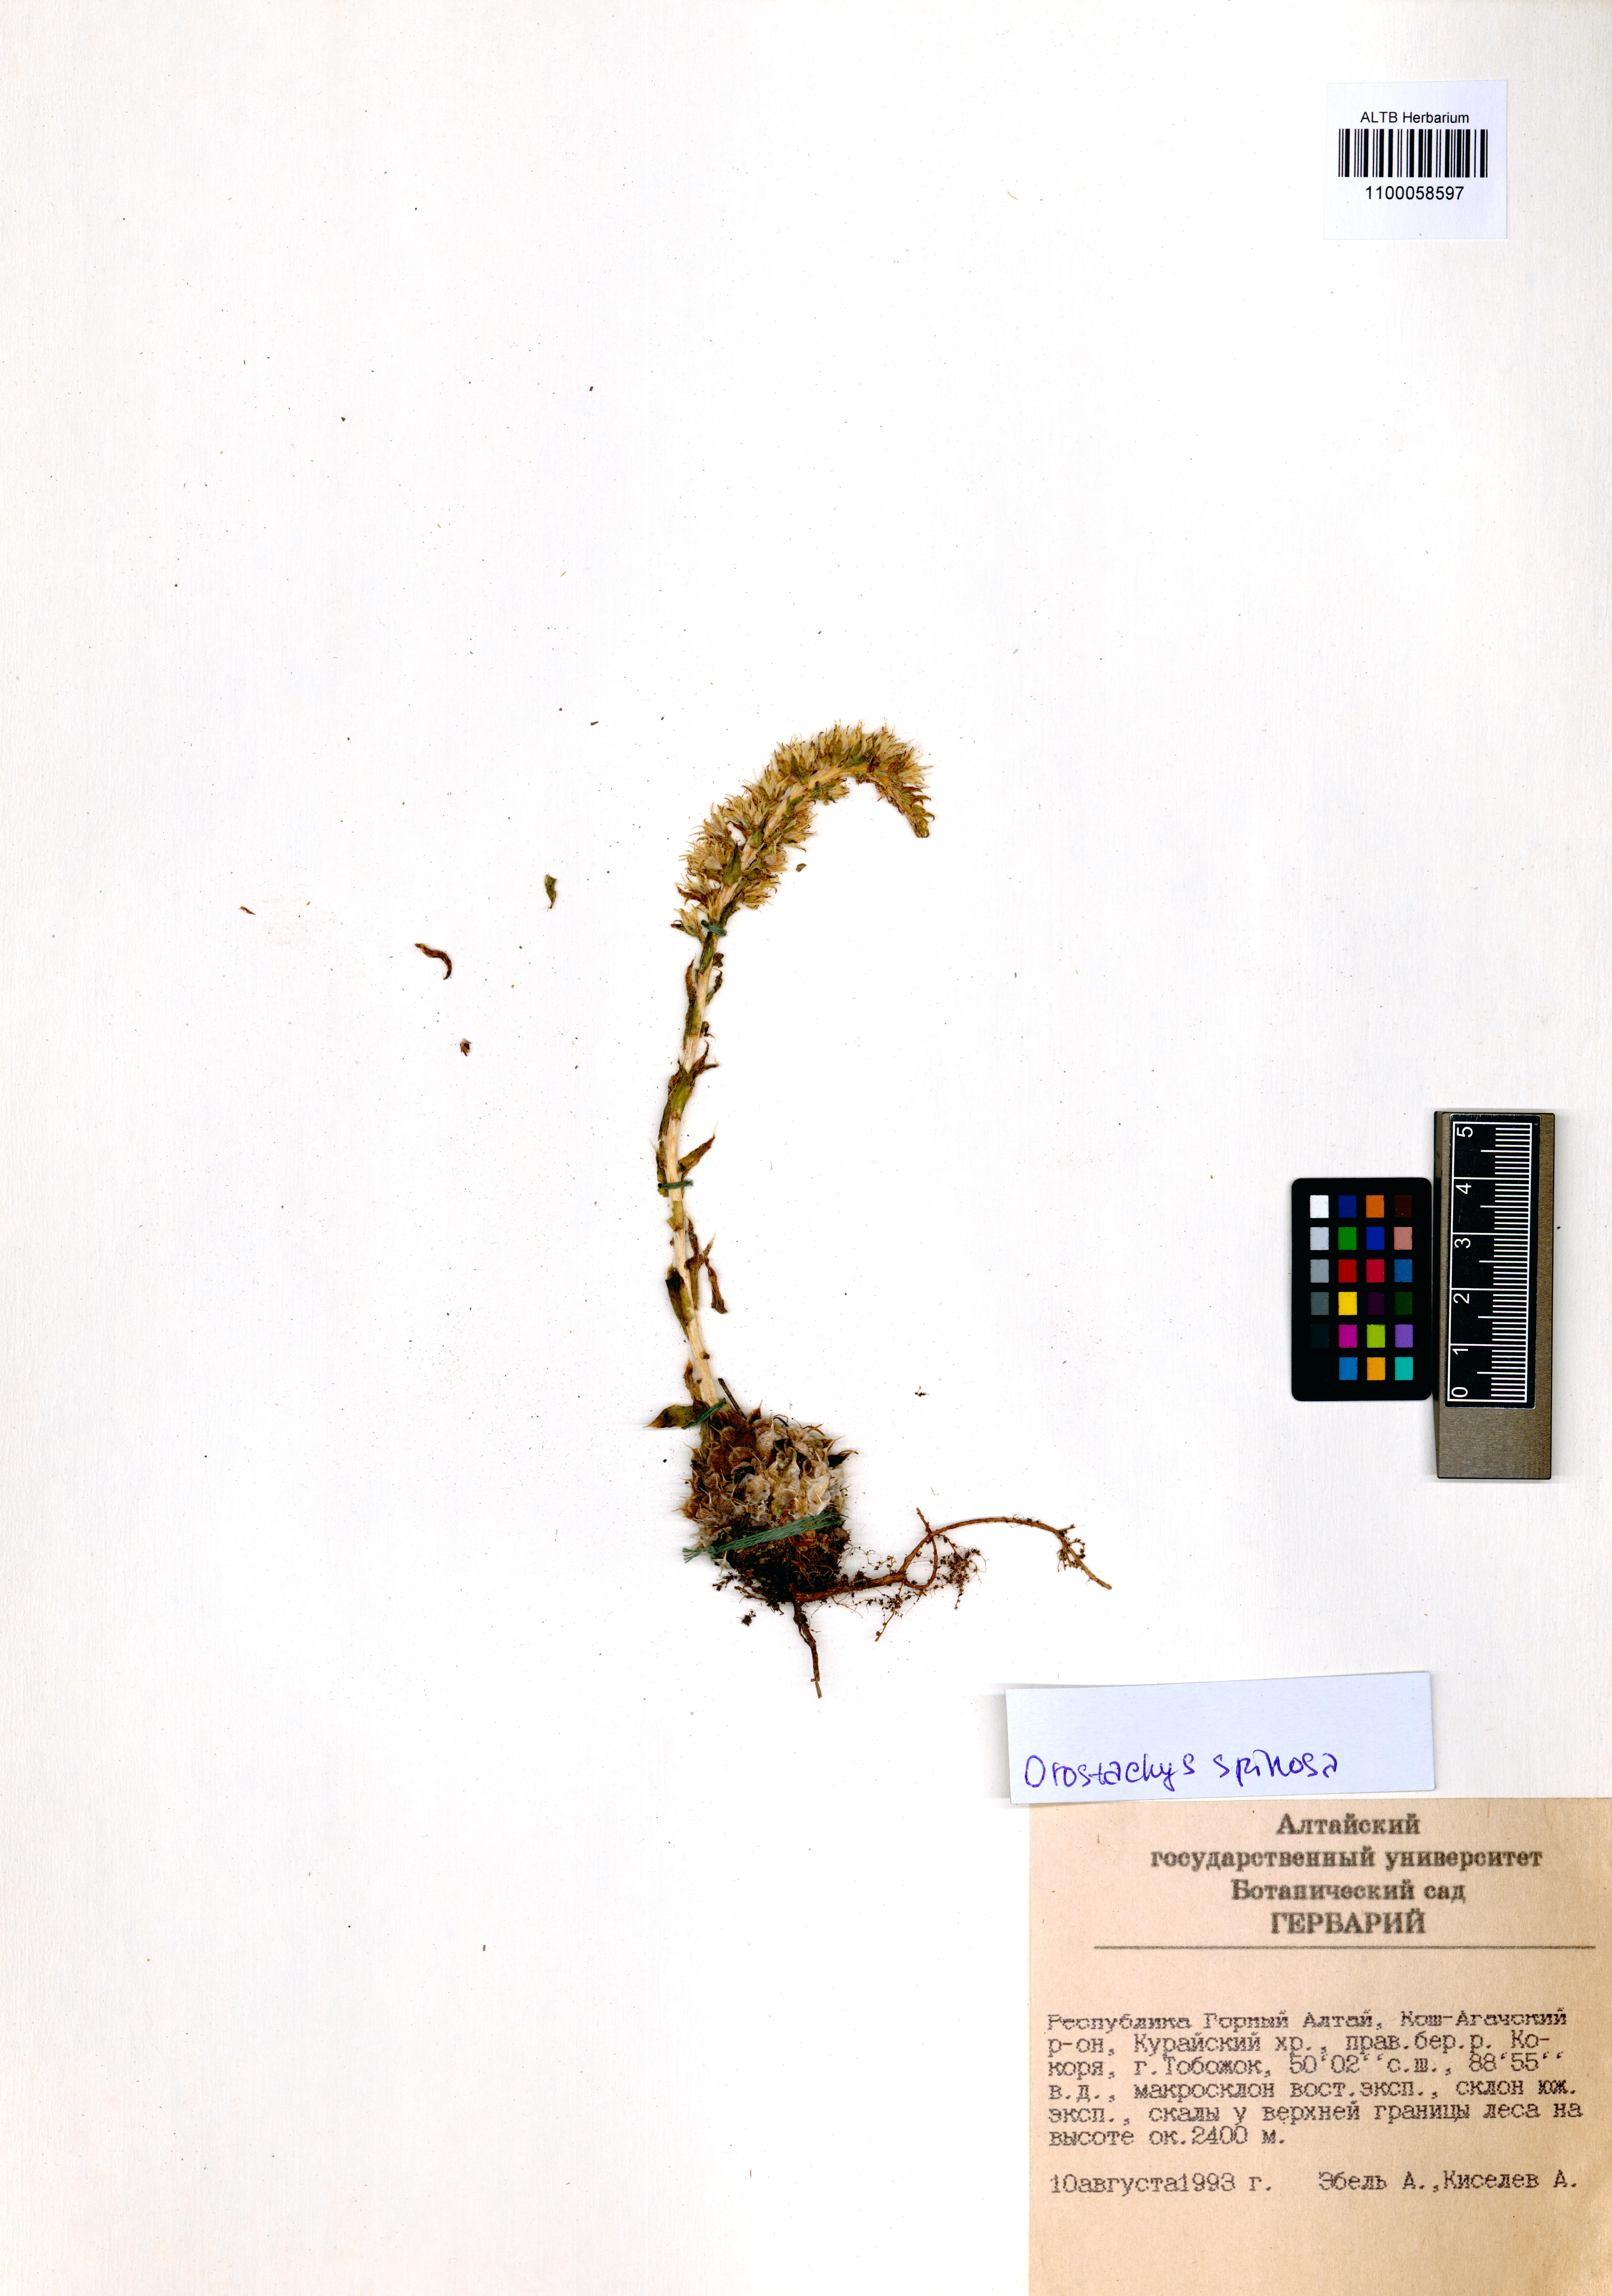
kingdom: Plantae
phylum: Tracheophyta
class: Magnoliopsida
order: Saxifragales
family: Crassulaceae
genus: Orostachys
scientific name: Orostachys spinosa
